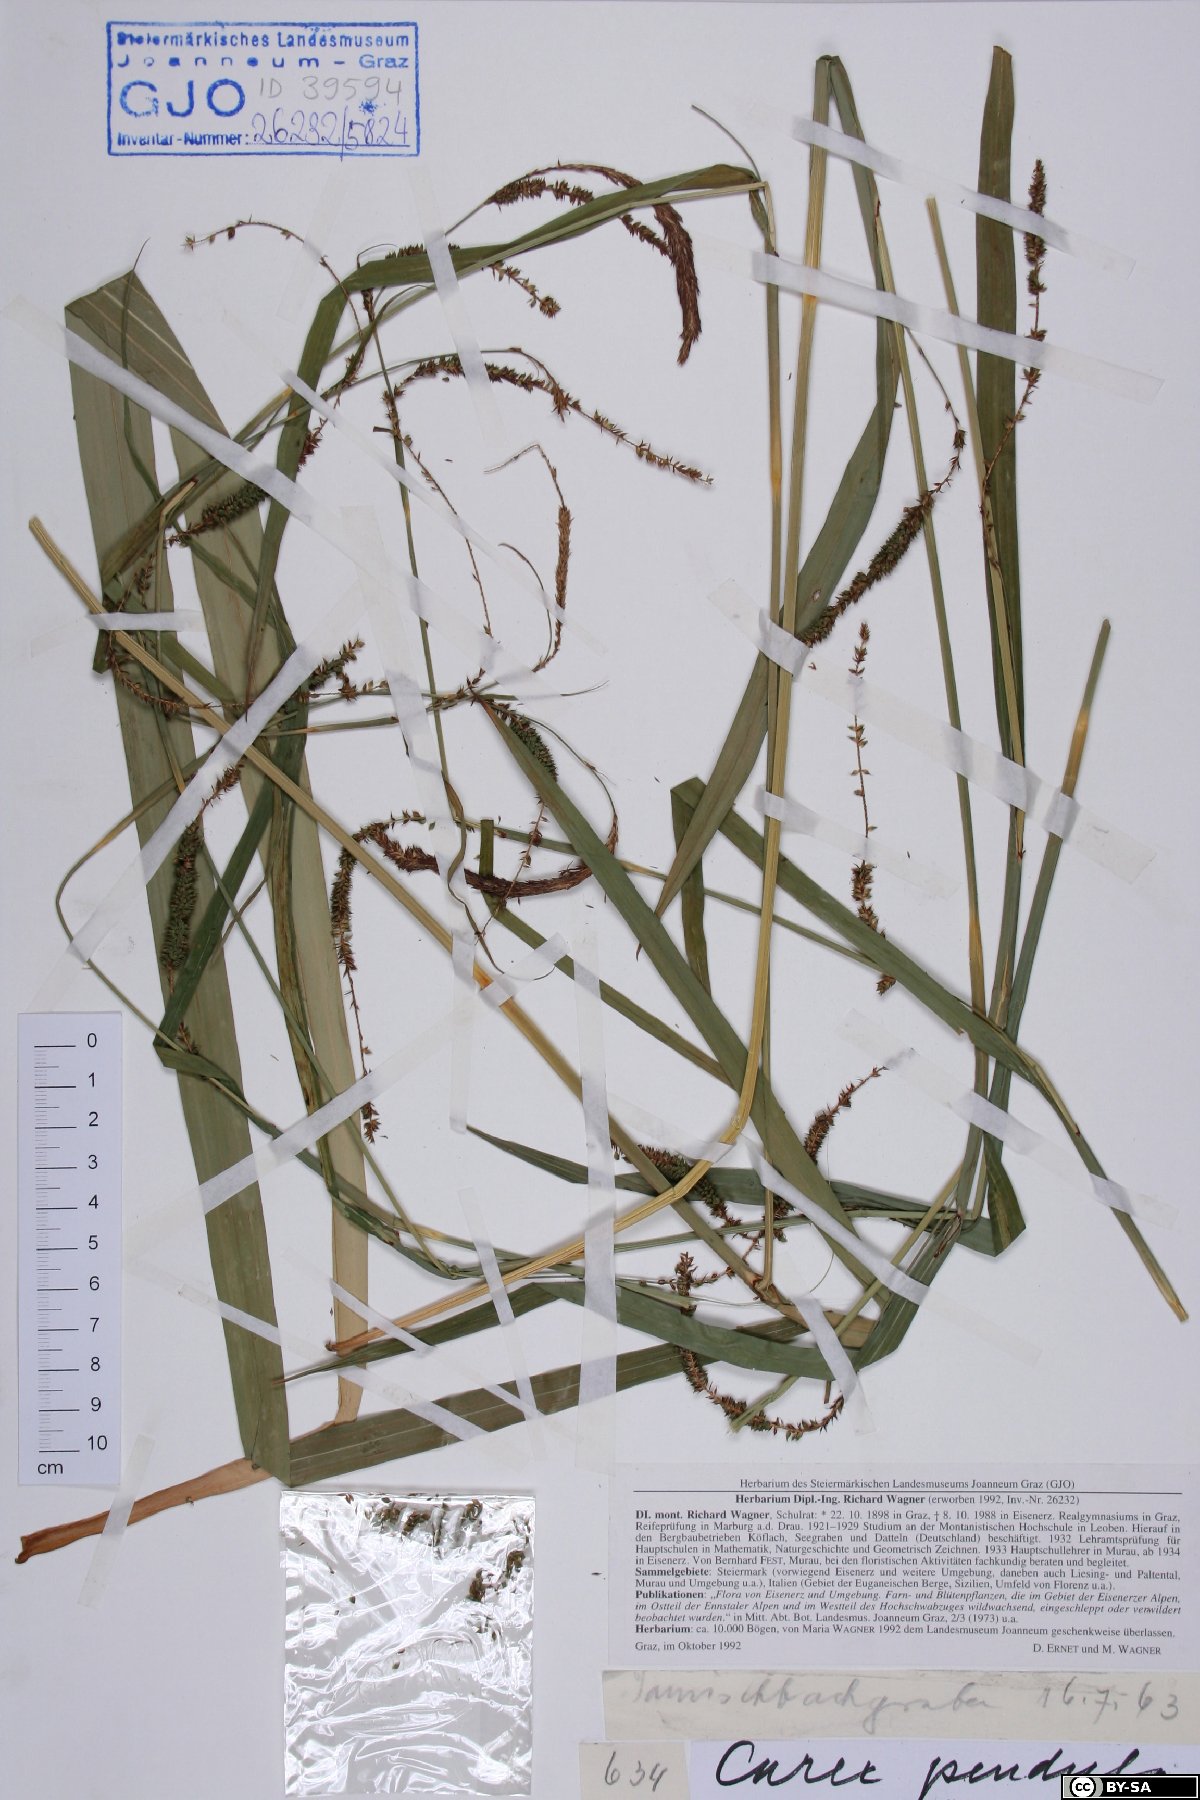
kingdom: Plantae
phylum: Tracheophyta
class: Liliopsida
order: Poales
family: Cyperaceae
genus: Carex
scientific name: Carex pendula
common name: Pendulous sedge
